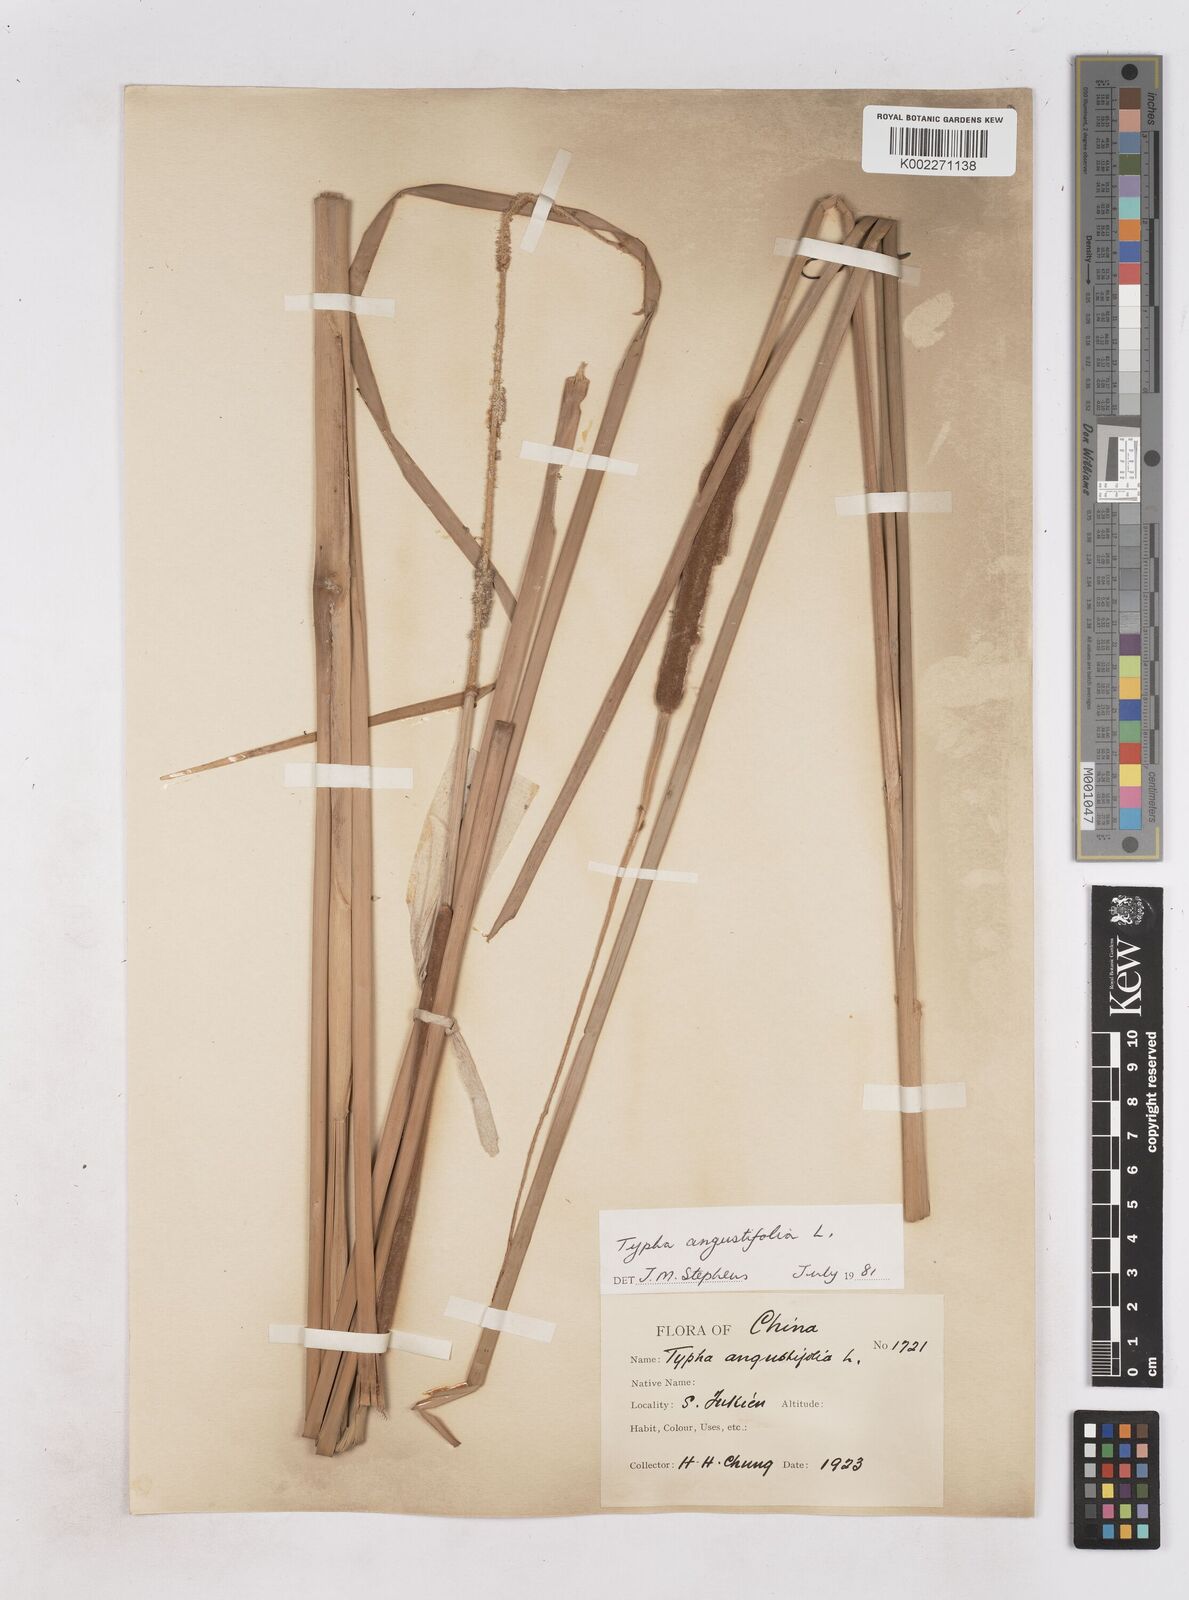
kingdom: Plantae
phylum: Tracheophyta
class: Liliopsida
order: Poales
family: Typhaceae
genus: Typha
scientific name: Typha angustifolia
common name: Lesser bulrush
